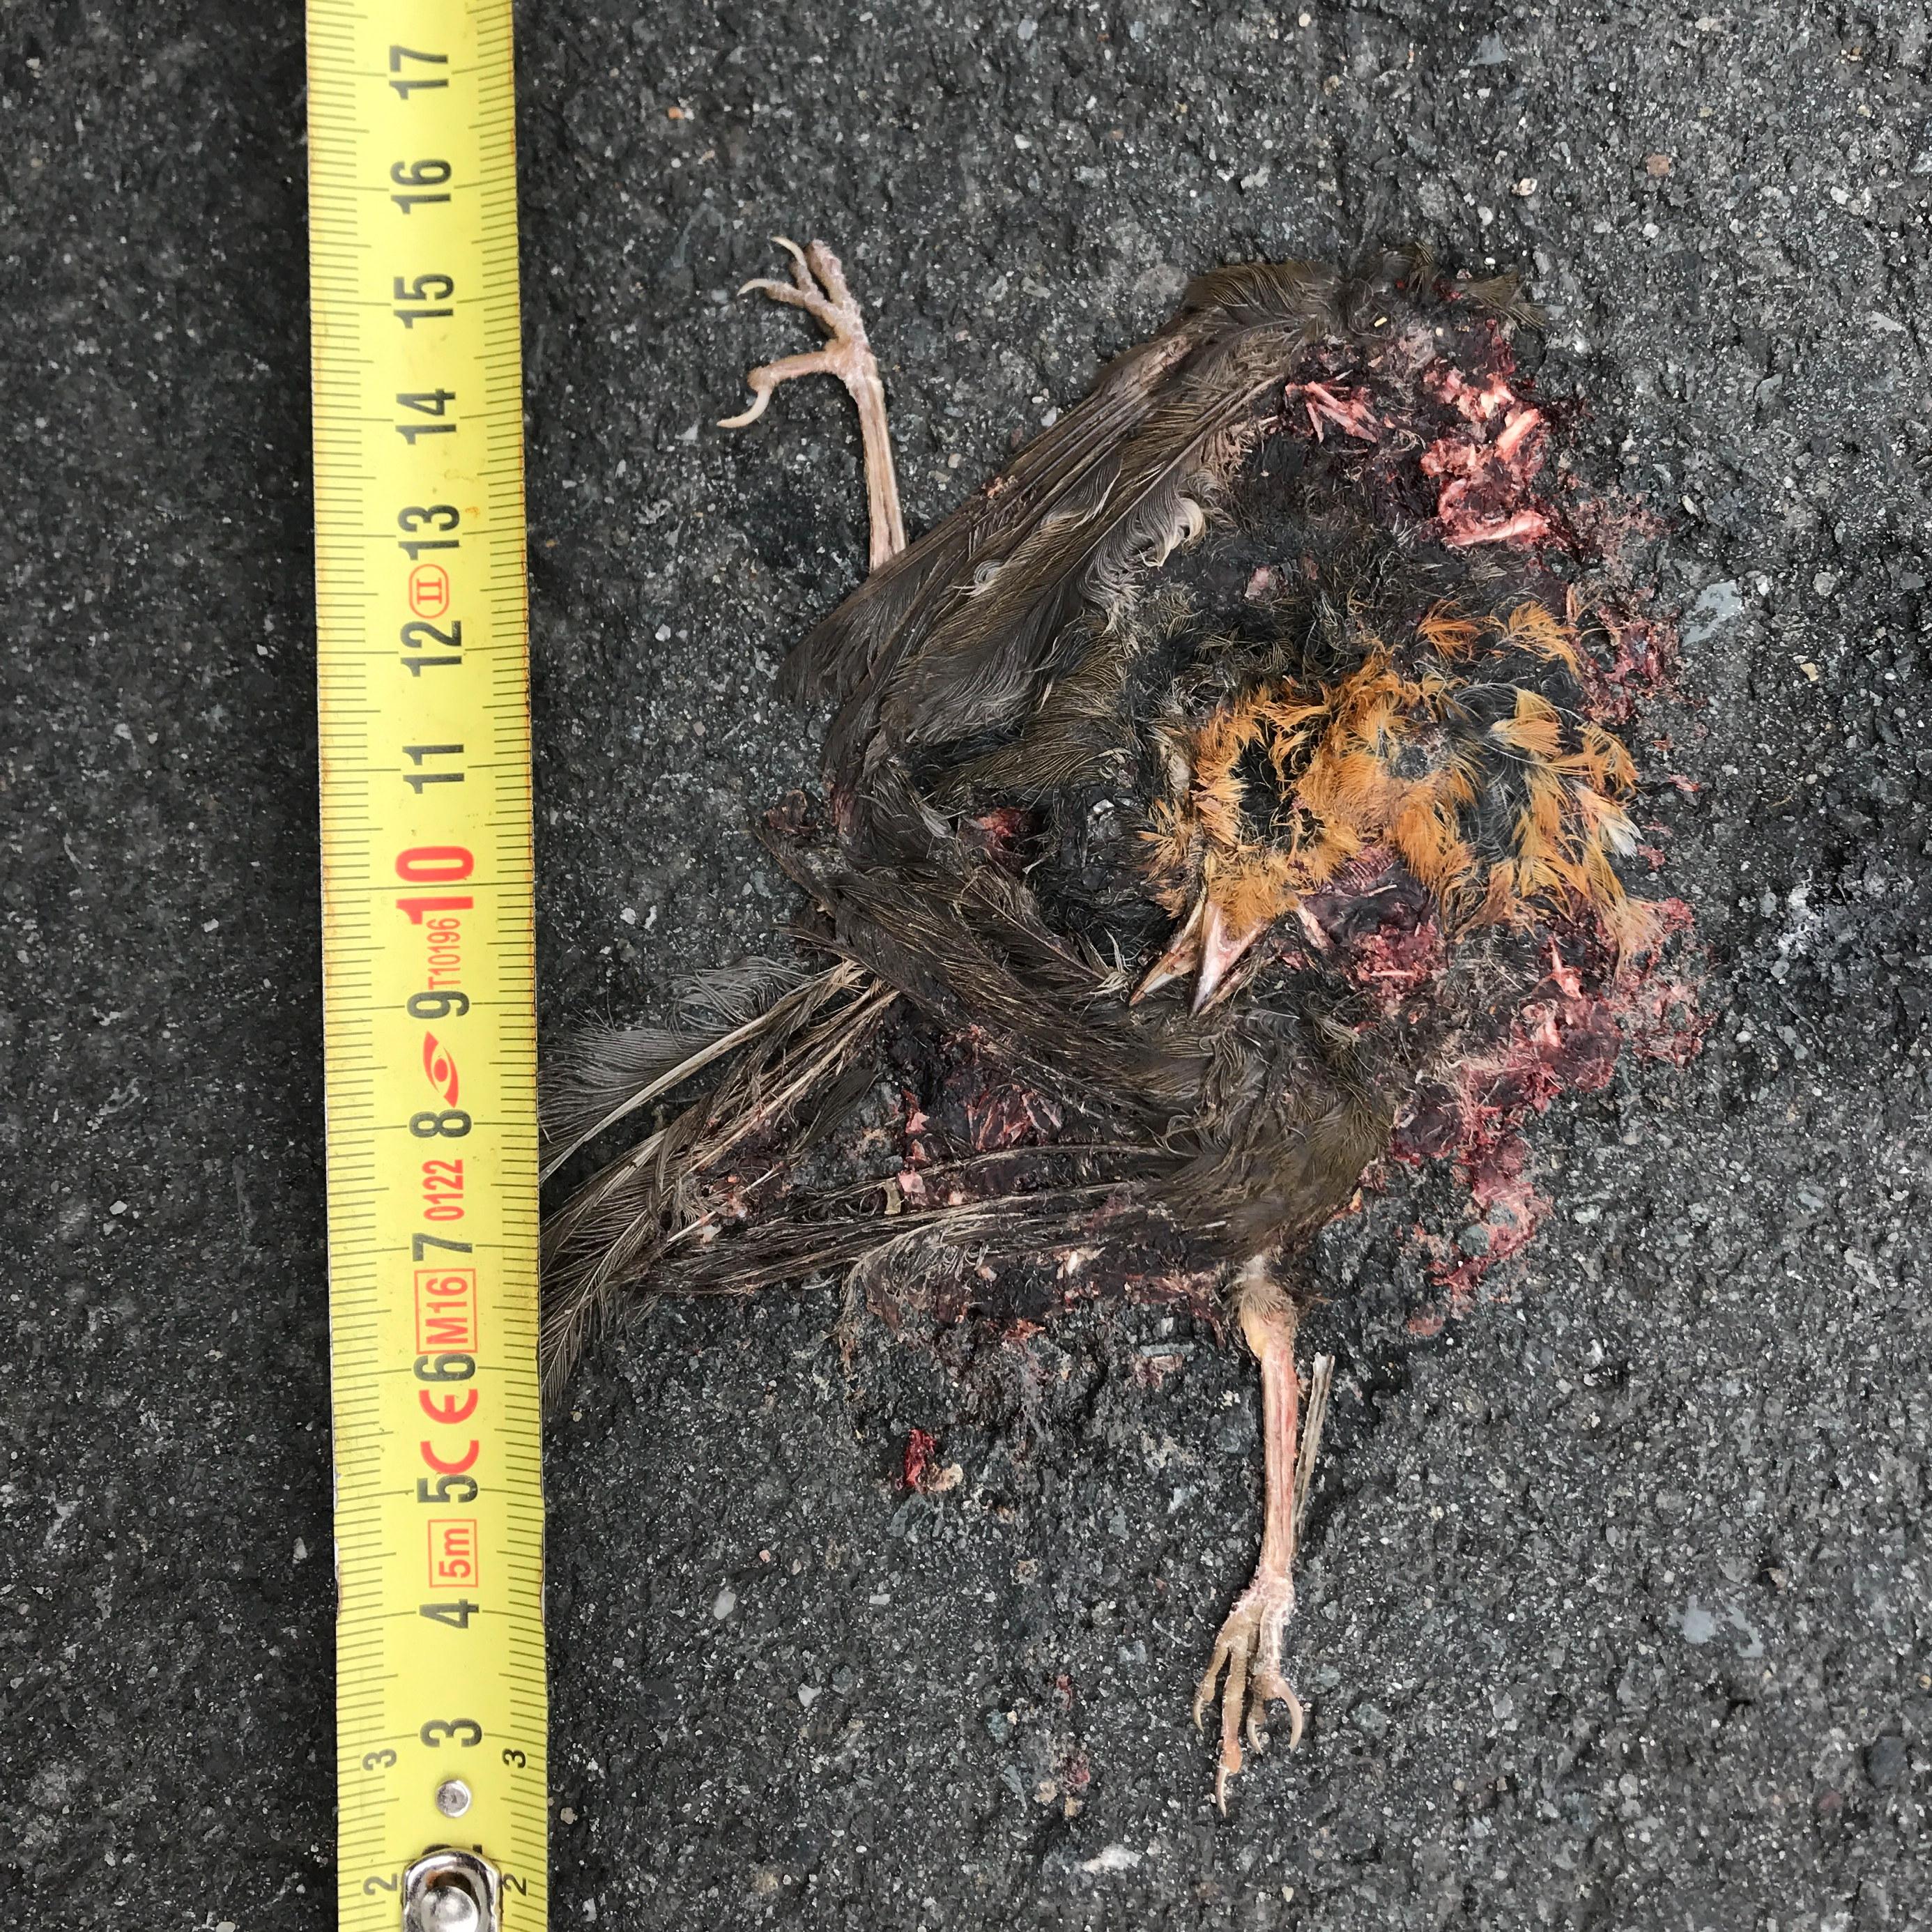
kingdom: Animalia
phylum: Chordata
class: Aves
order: Passeriformes
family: Muscicapidae
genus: Erithacus
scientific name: Erithacus rubecula
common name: European robin
